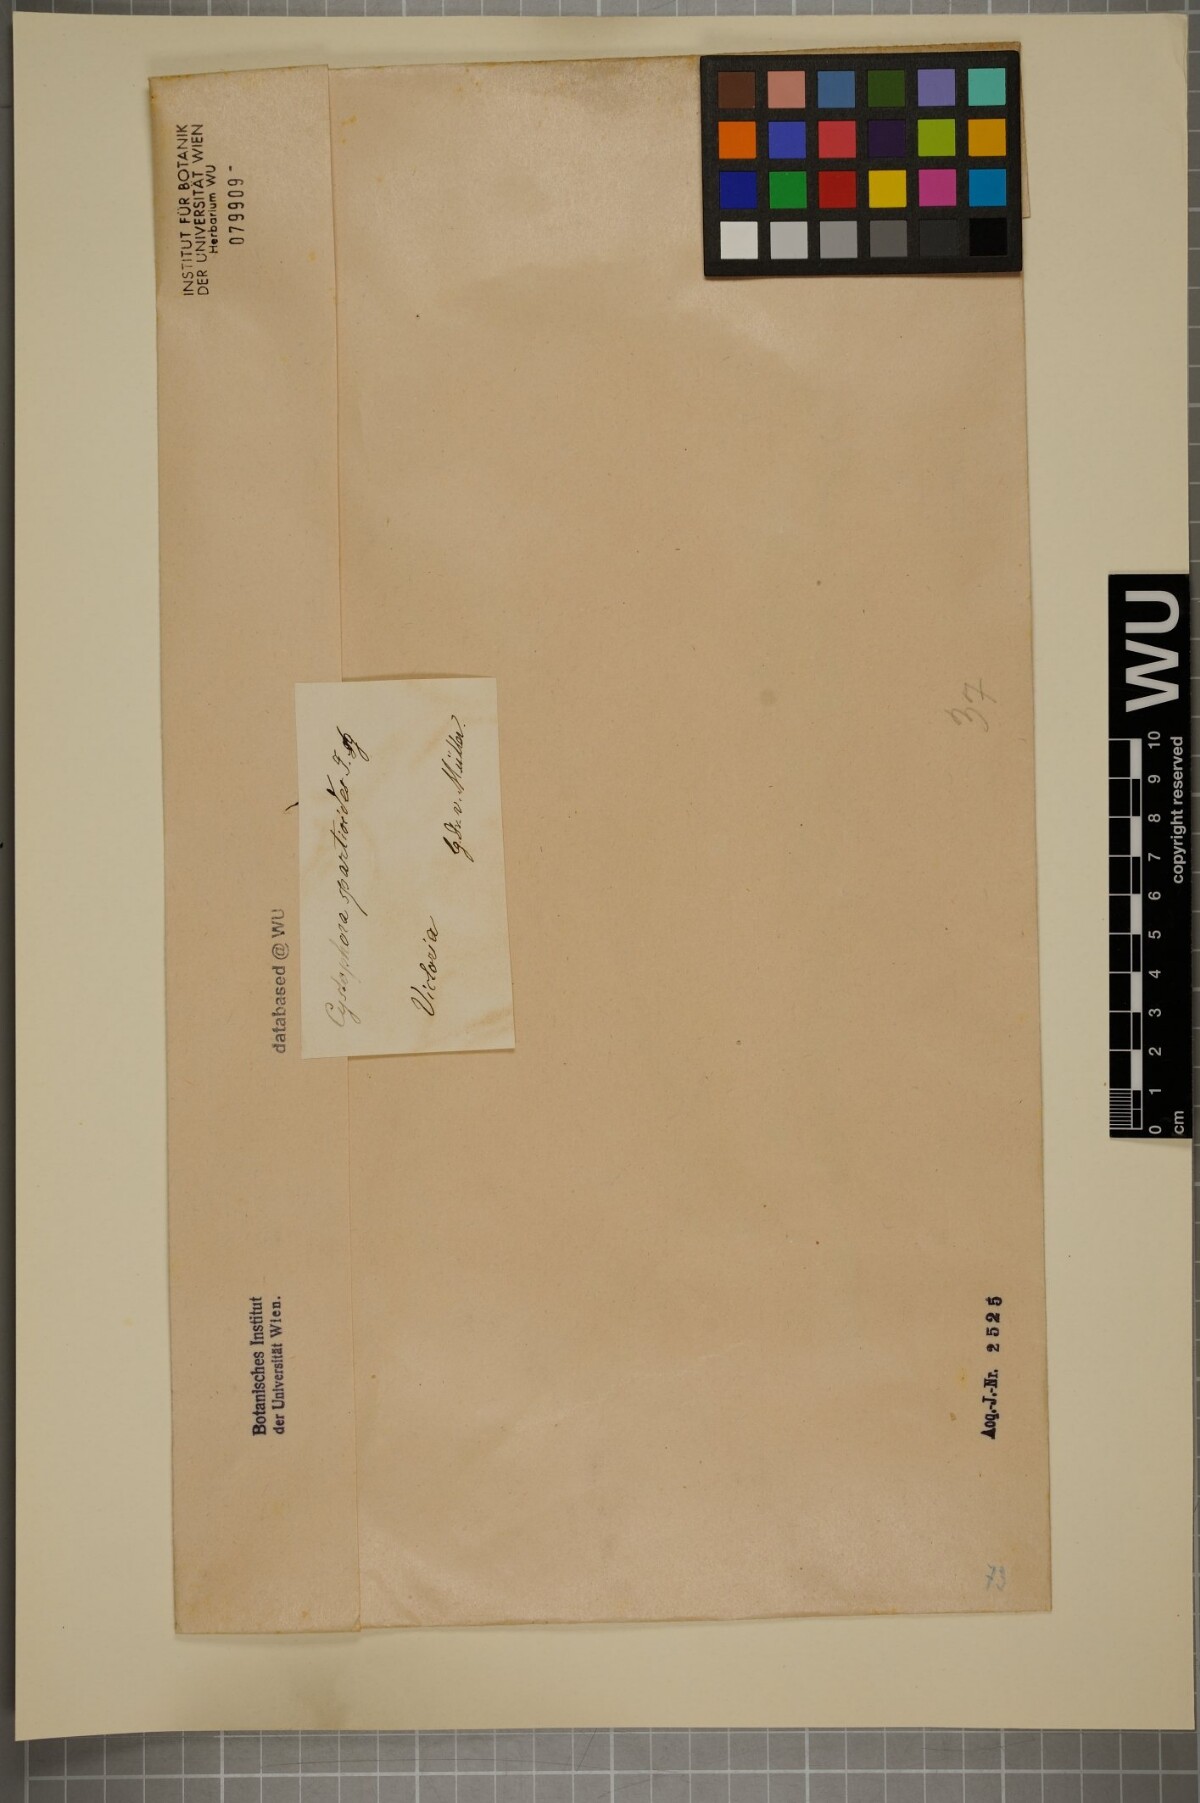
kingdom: Chromista
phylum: Ochrophyta
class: Phaeophyceae
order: Fucales
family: Sargassaceae
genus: Cystophora
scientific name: Cystophora
